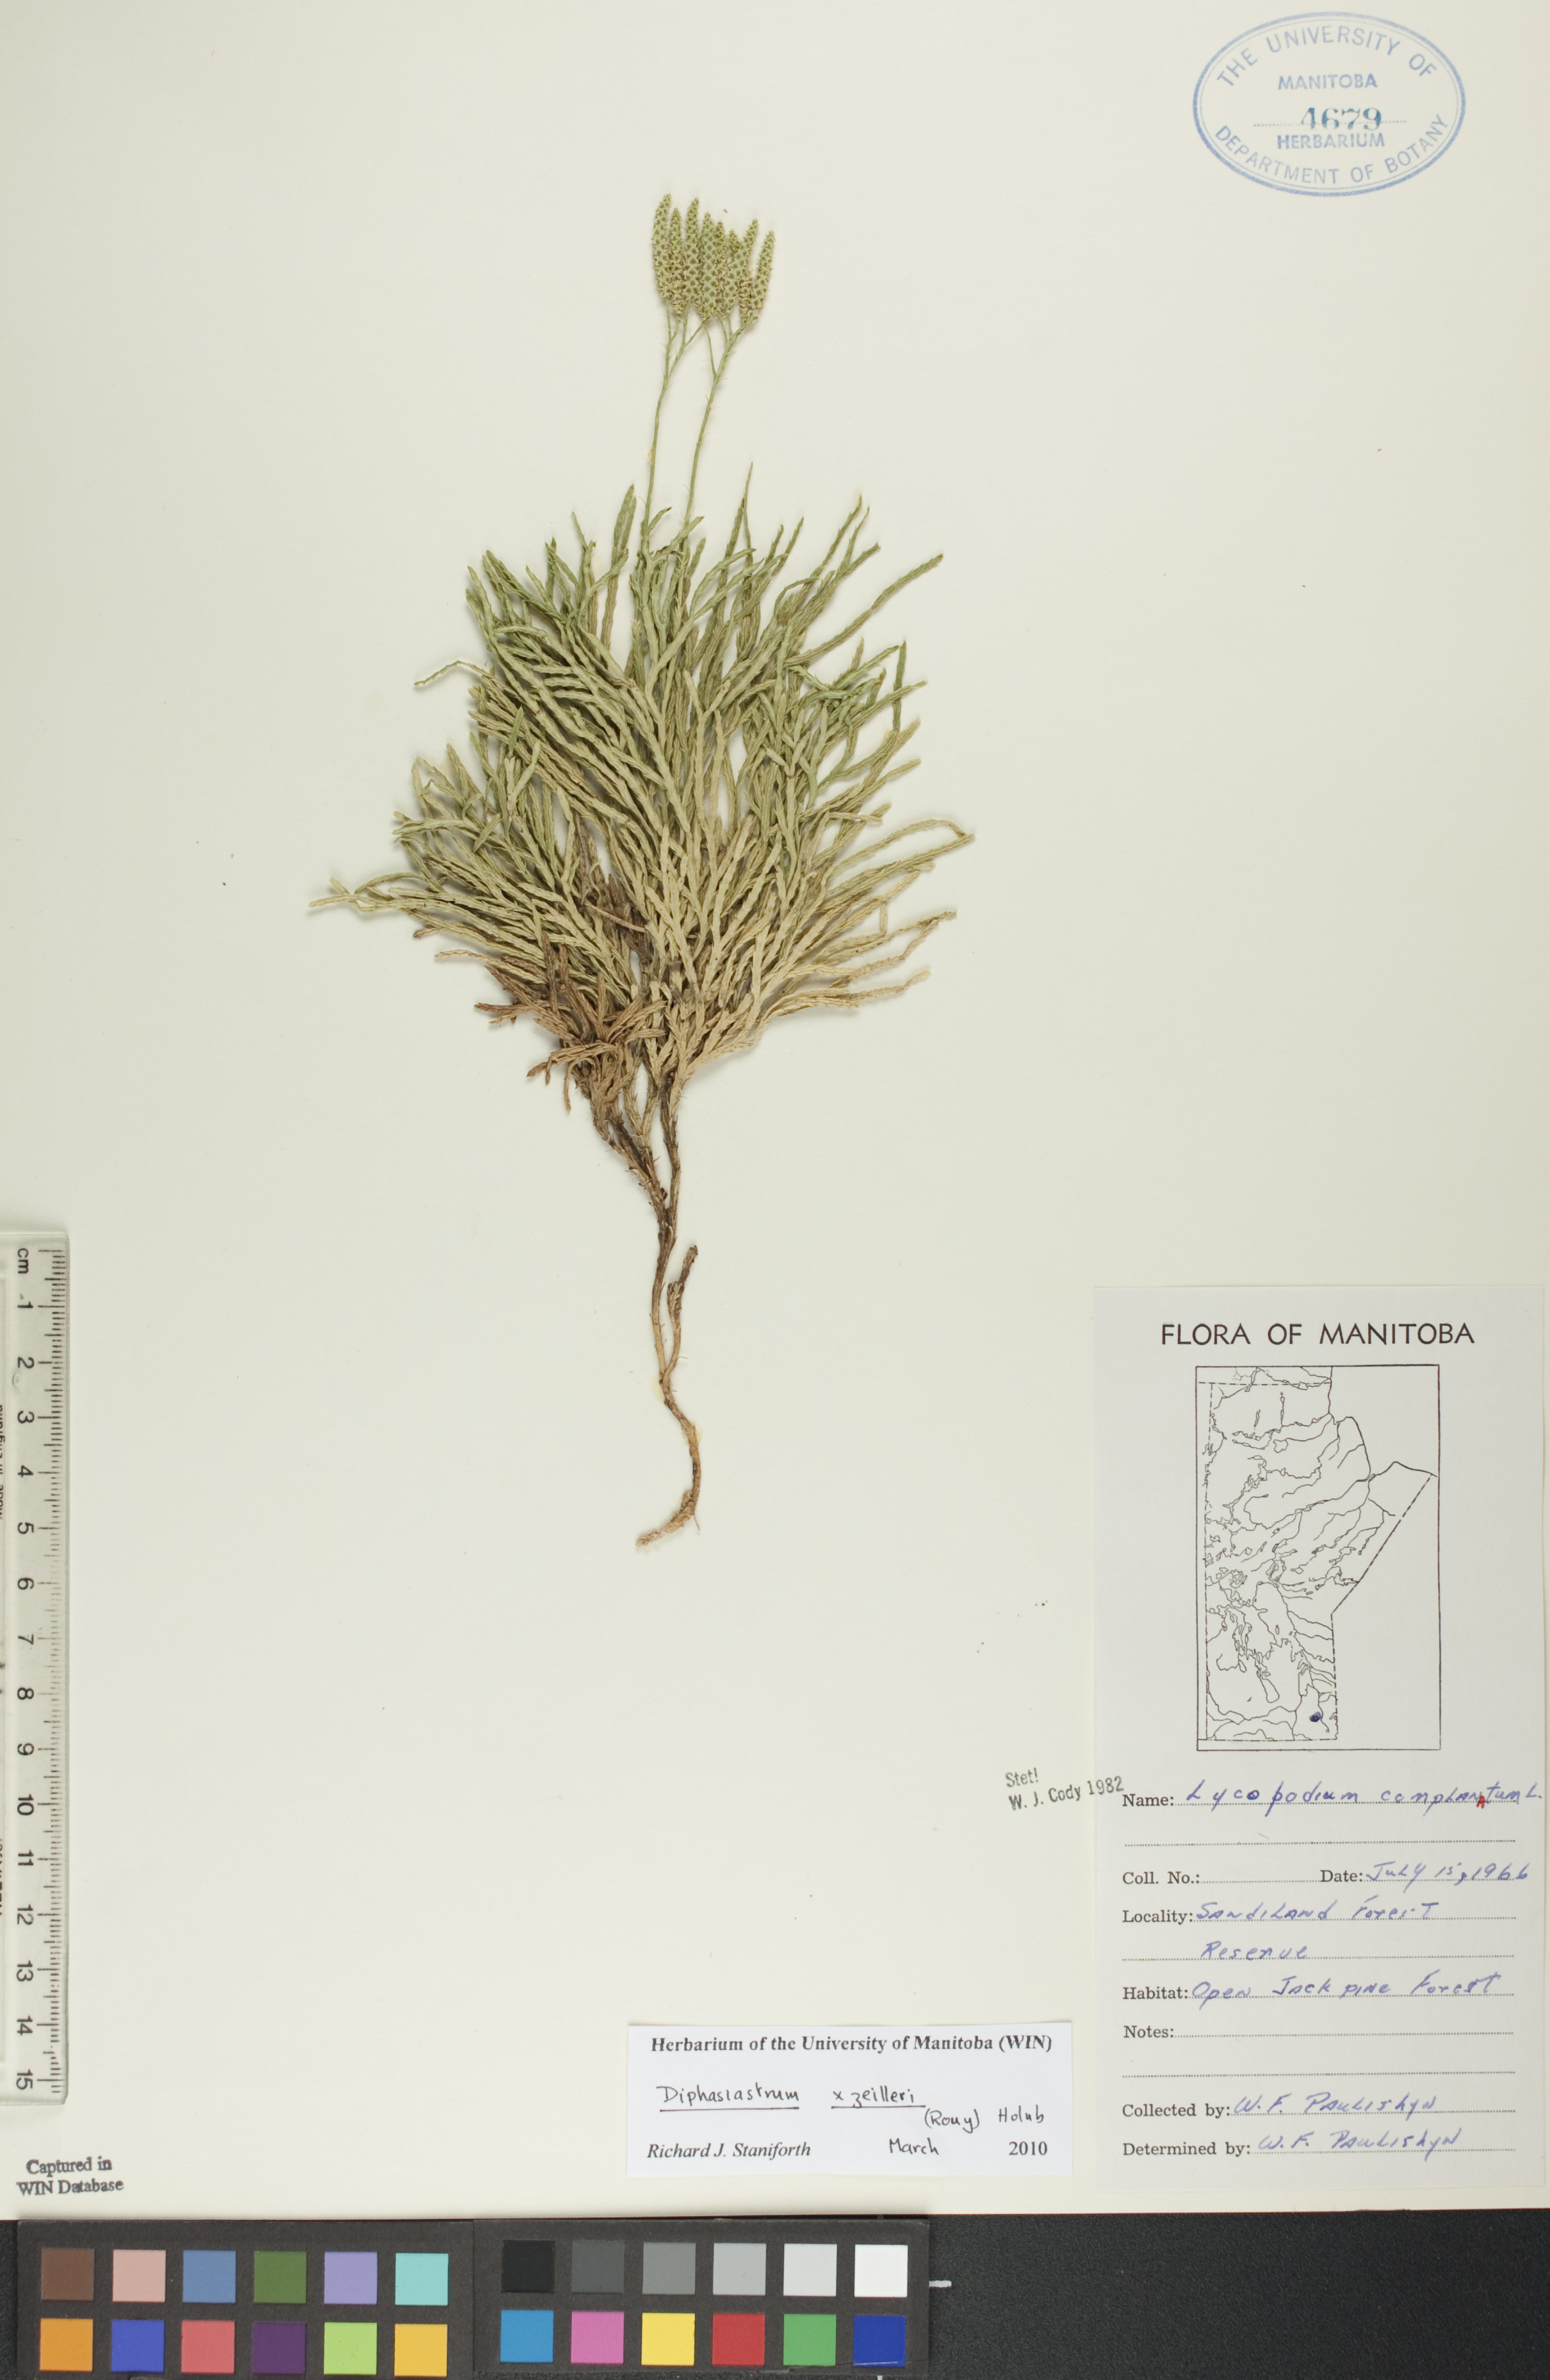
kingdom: Plantae
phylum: Tracheophyta
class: Lycopodiopsida
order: Lycopodiales
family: Lycopodiaceae
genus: Diphasiastrum
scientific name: Diphasiastrum zeilleri
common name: Zeiller's clubmoss
